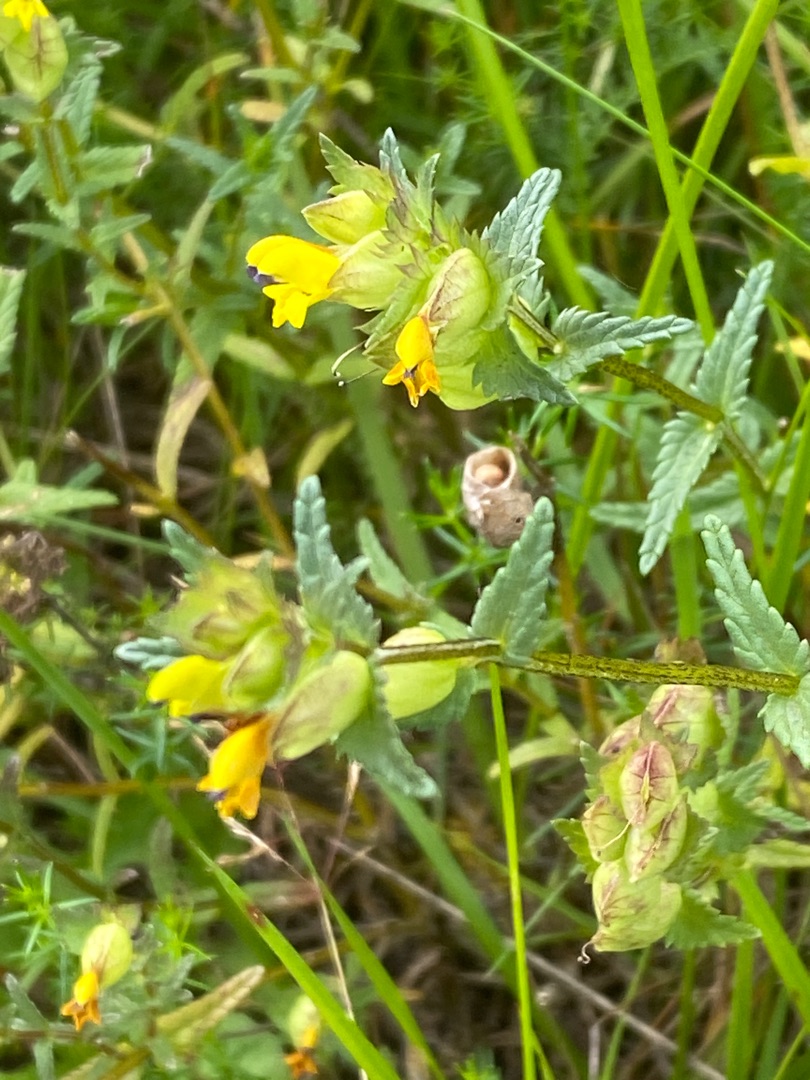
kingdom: Plantae
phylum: Tracheophyta
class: Magnoliopsida
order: Lamiales
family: Orobanchaceae
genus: Rhinanthus
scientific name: Rhinanthus minor
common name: Liden skjaller
